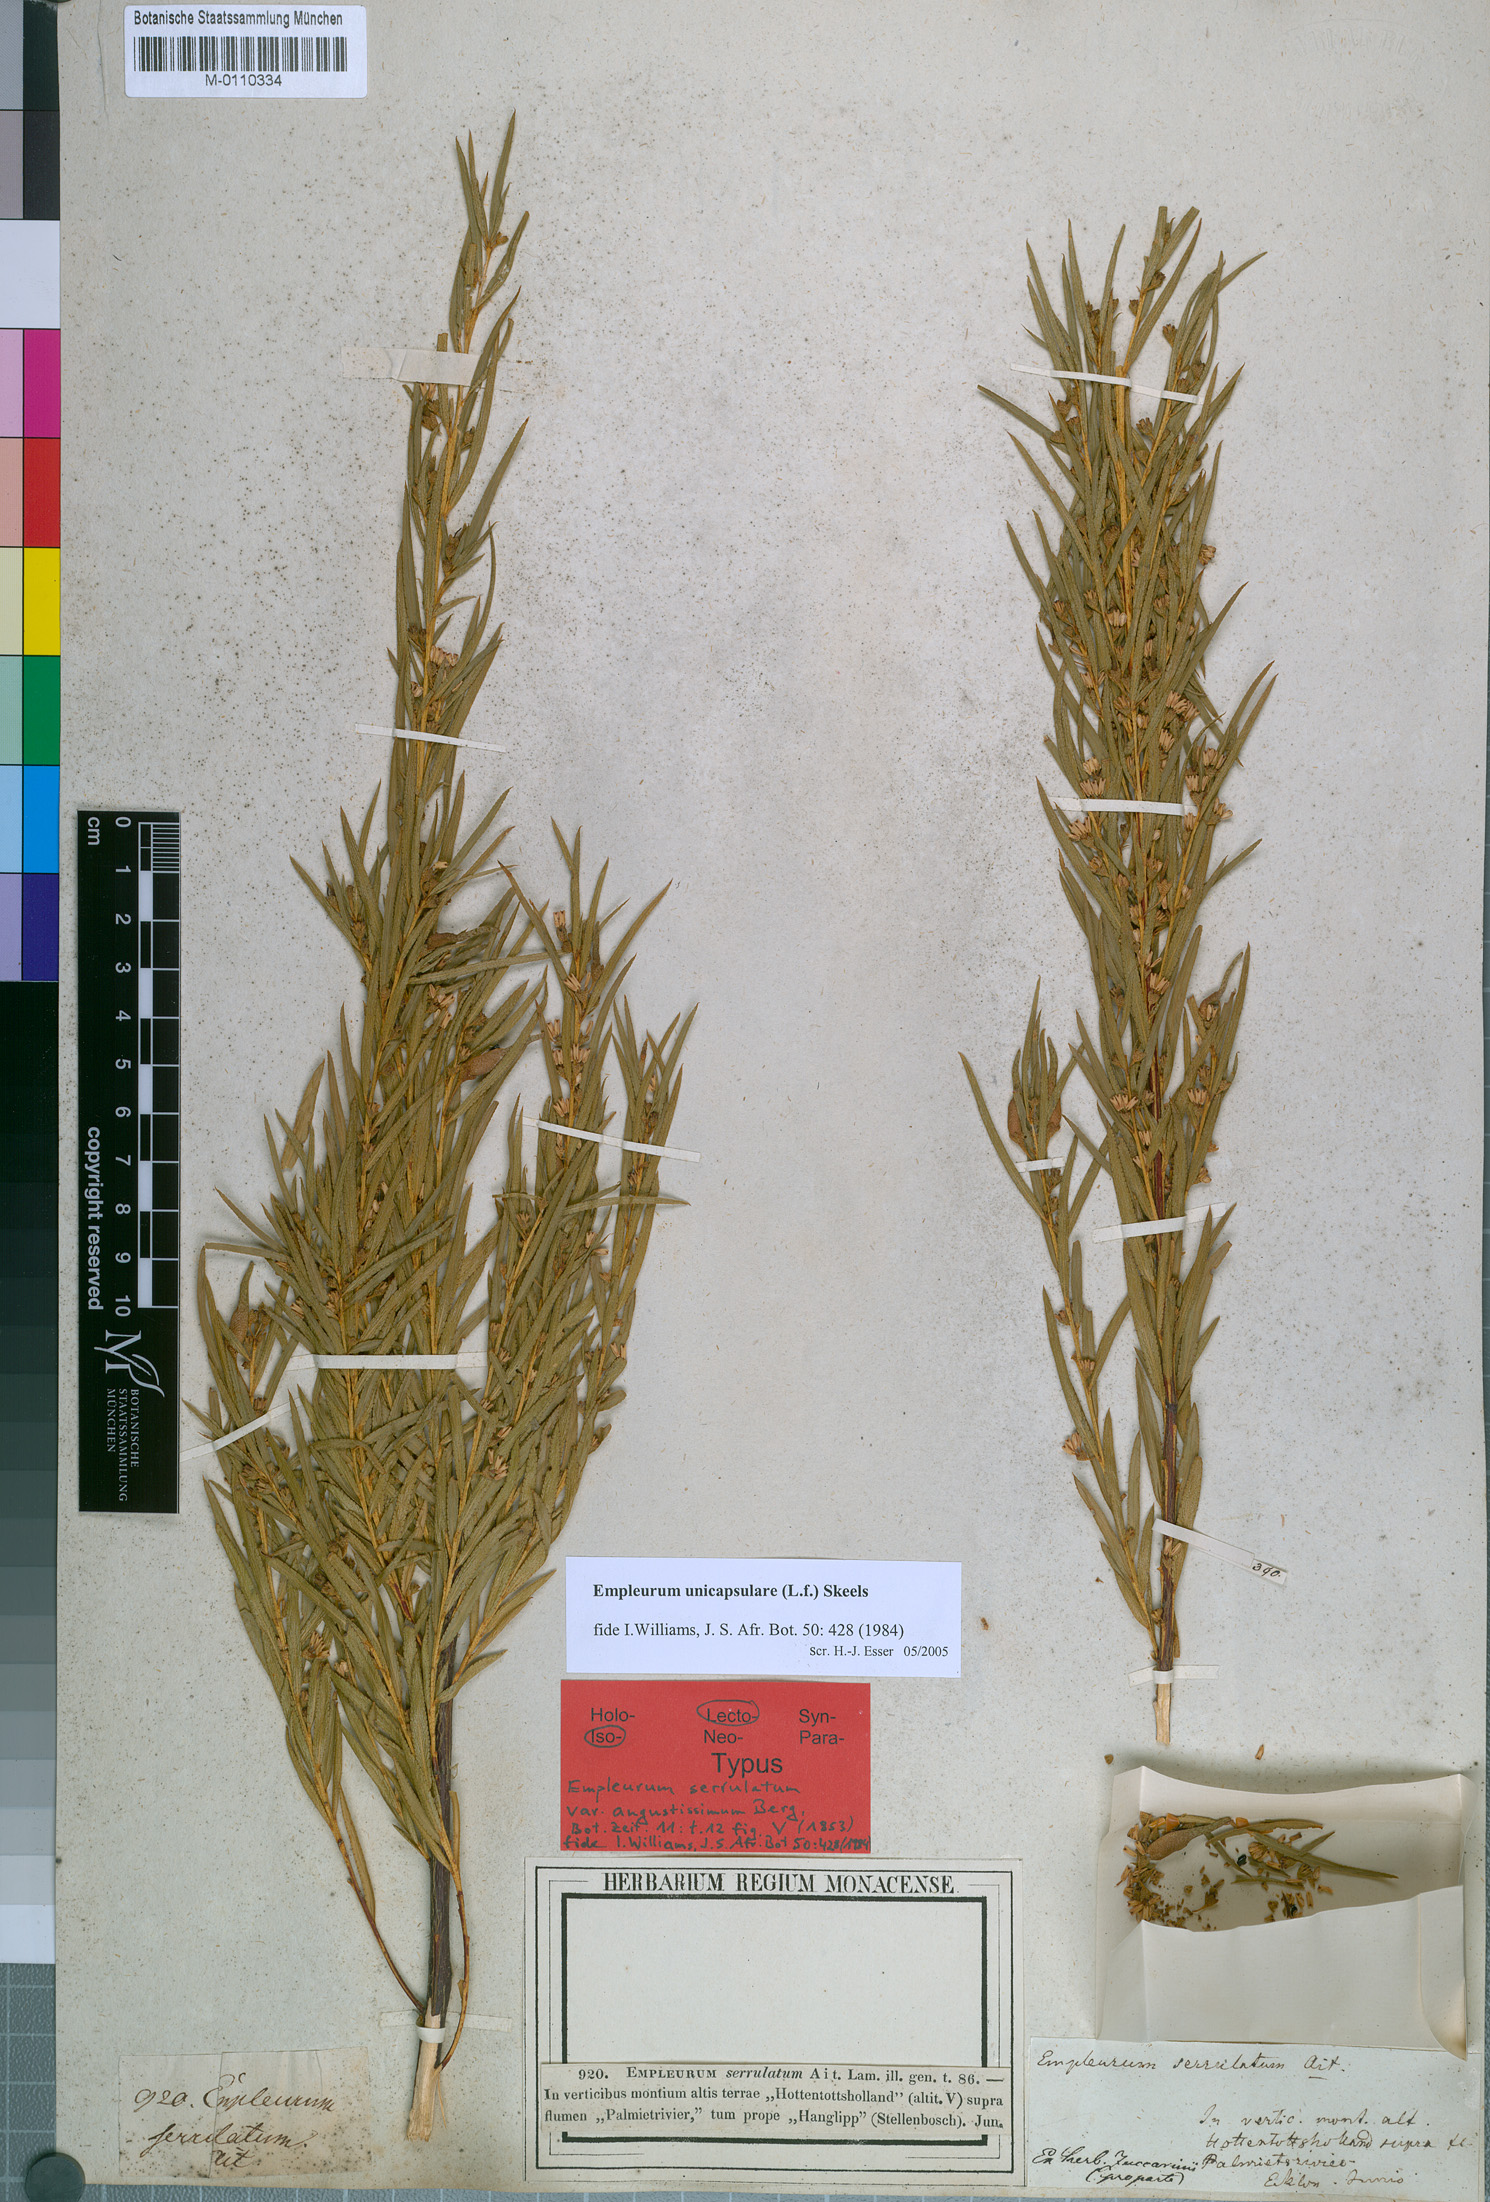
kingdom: Plantae
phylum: Tracheophyta
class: Magnoliopsida
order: Sapindales
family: Rutaceae
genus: Empleurum
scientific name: Empleurum unicapsulare
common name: False buchu
